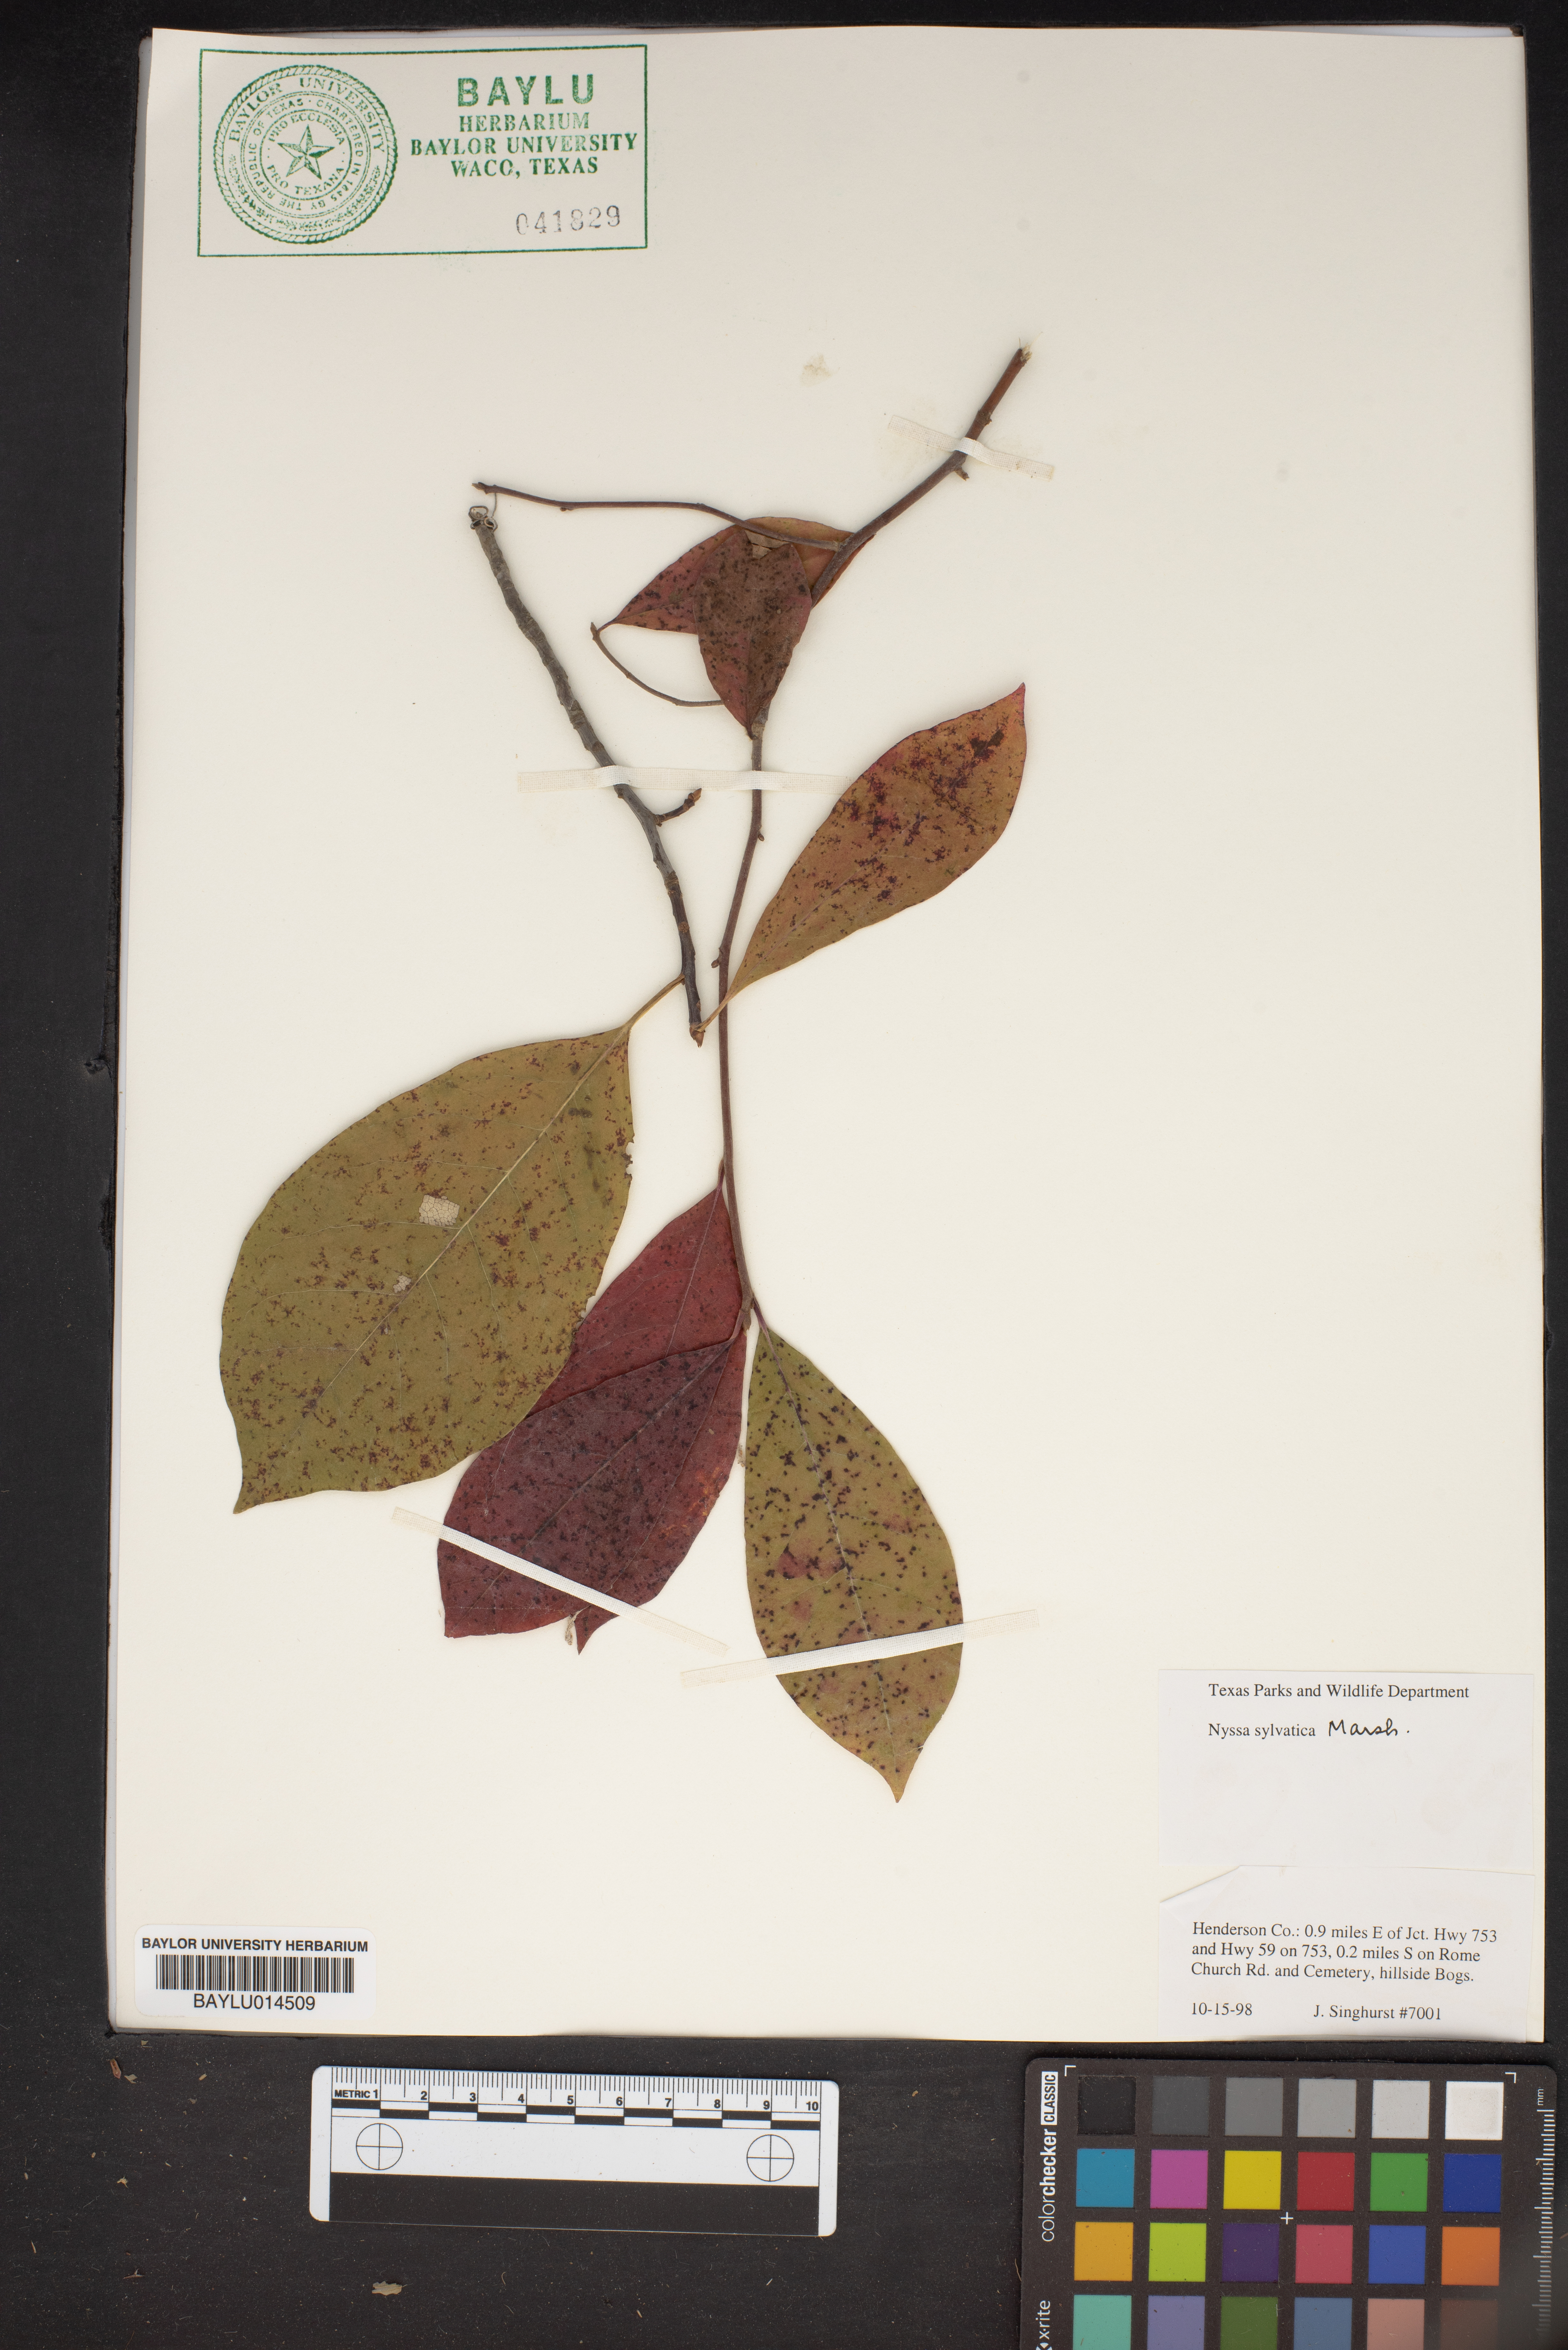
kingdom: Plantae
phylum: Tracheophyta
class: Magnoliopsida
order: Cornales
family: Nyssaceae
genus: Nyssa
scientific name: Nyssa sylvatica
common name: Black tupelo
